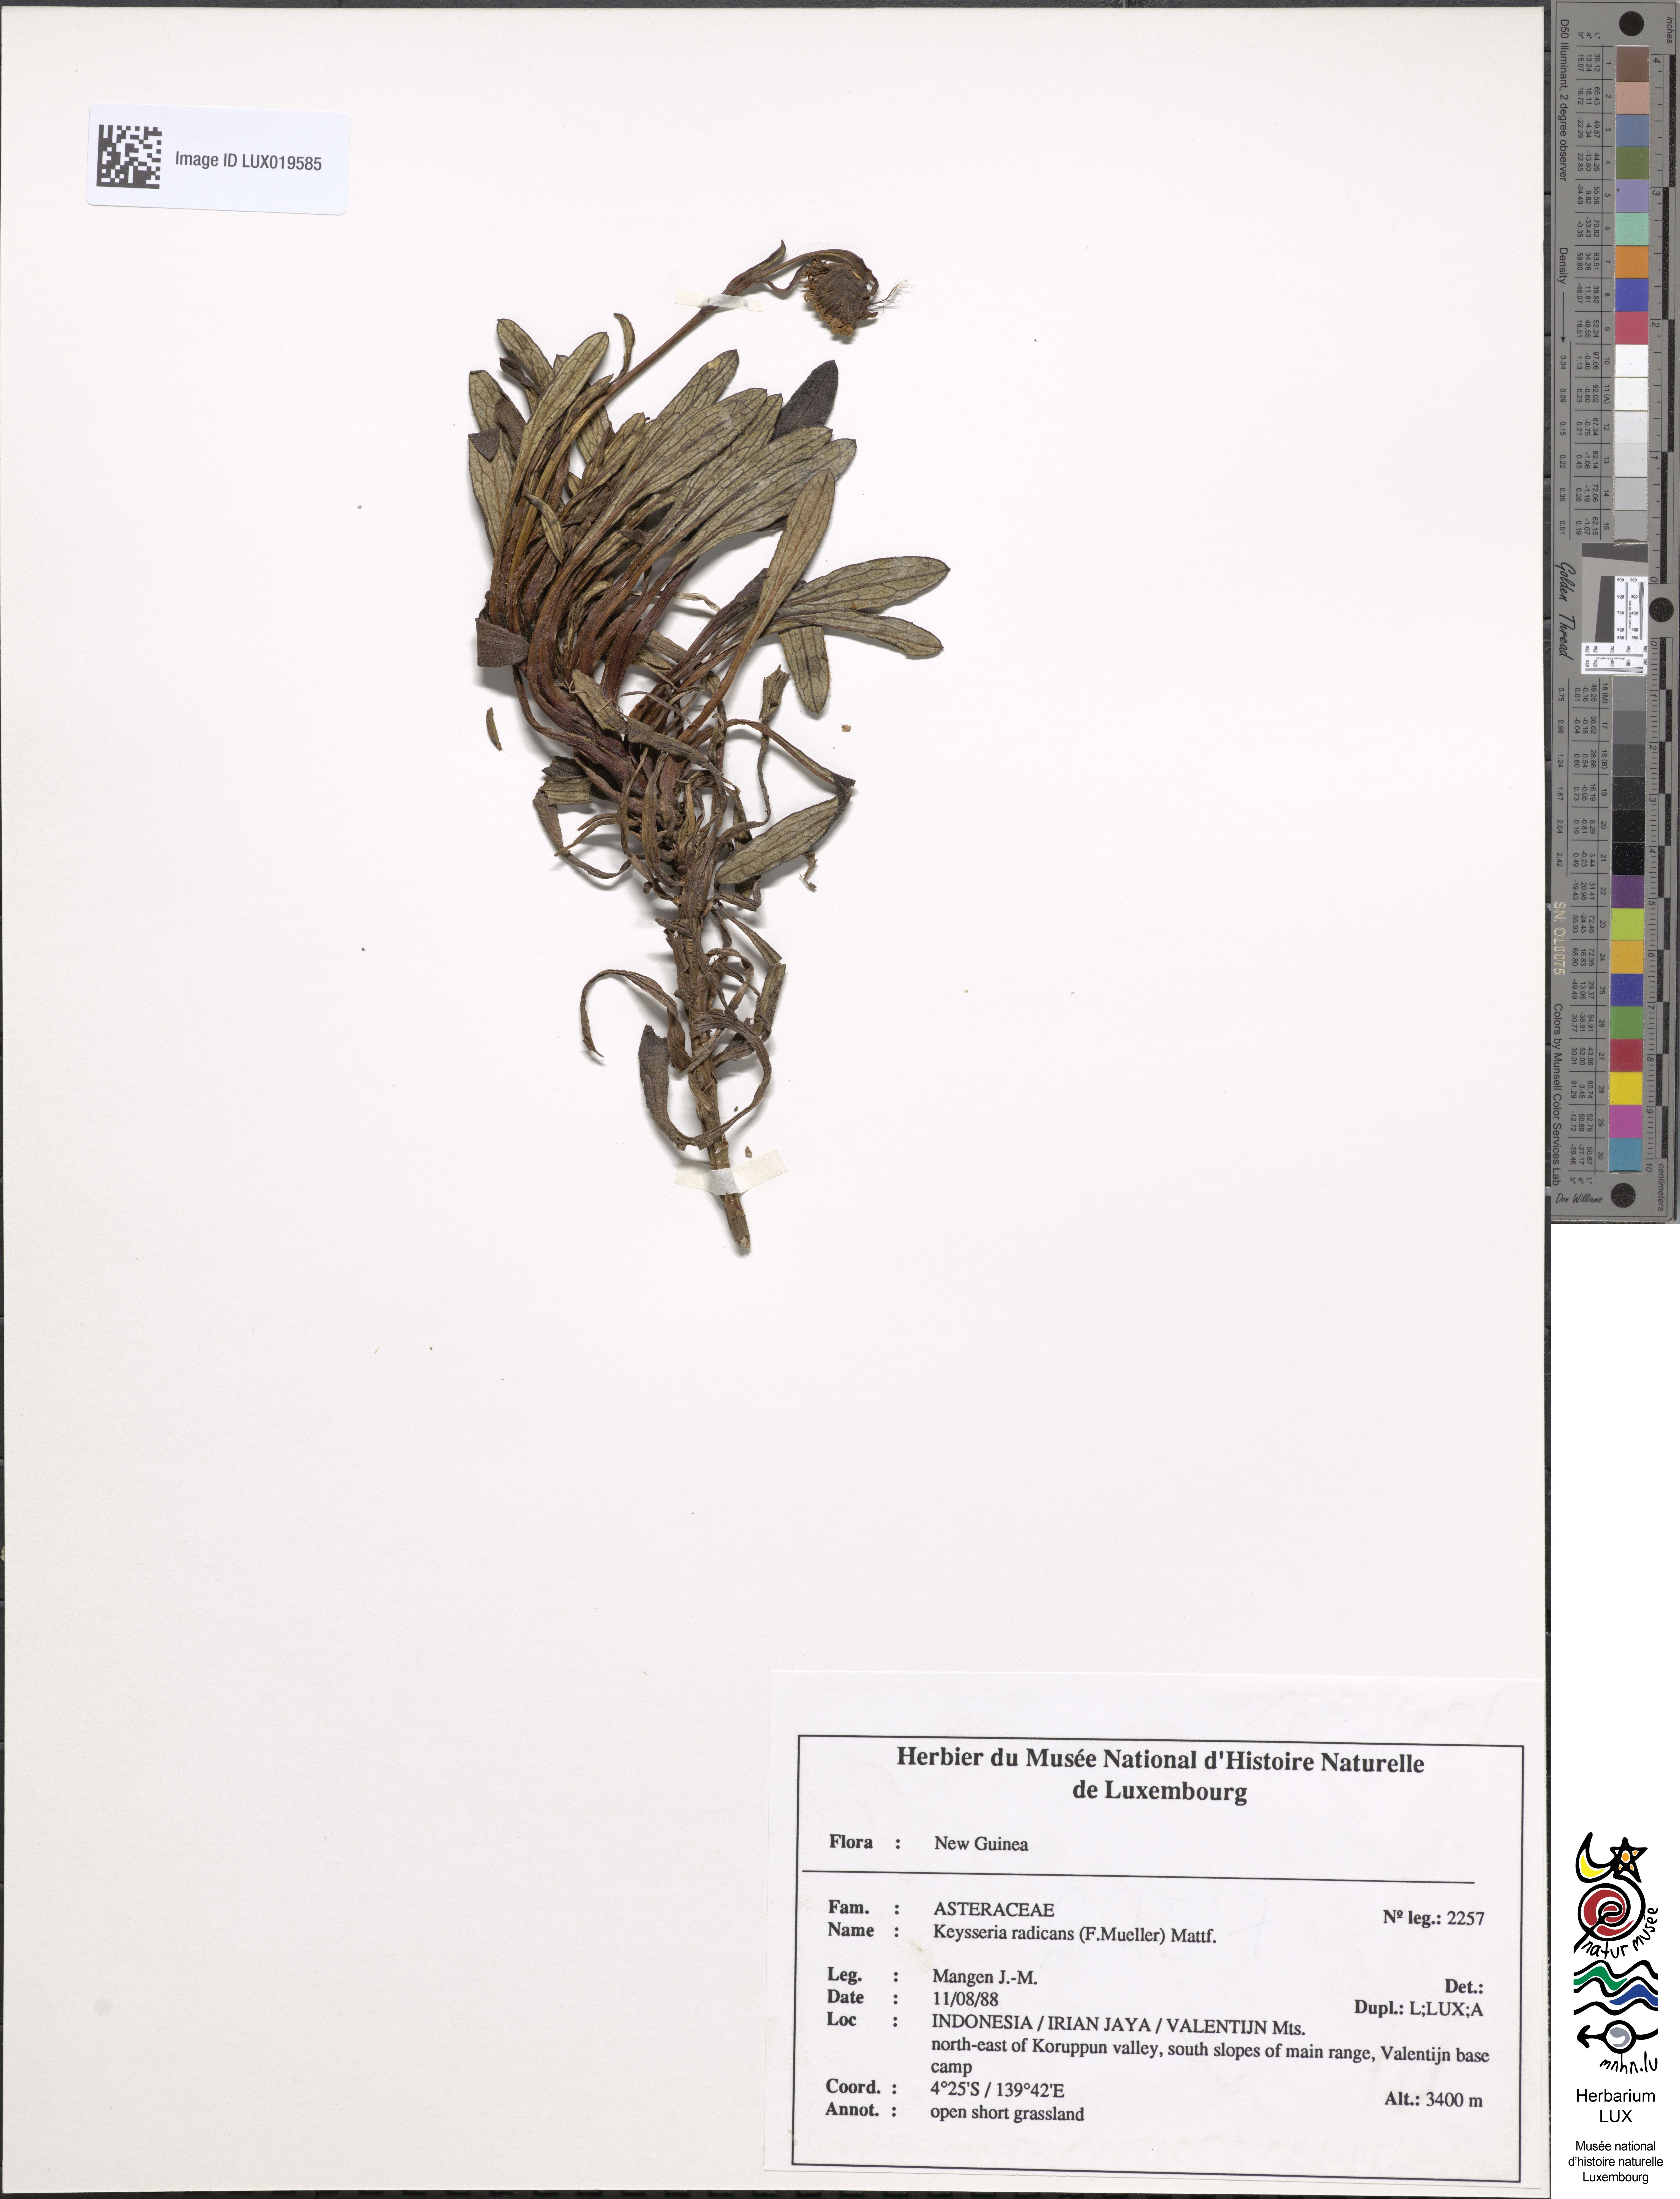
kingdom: Plantae
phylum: Tracheophyta
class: Magnoliopsida
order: Asterales
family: Asteraceae
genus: Keysseria
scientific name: Keysseria radicans
